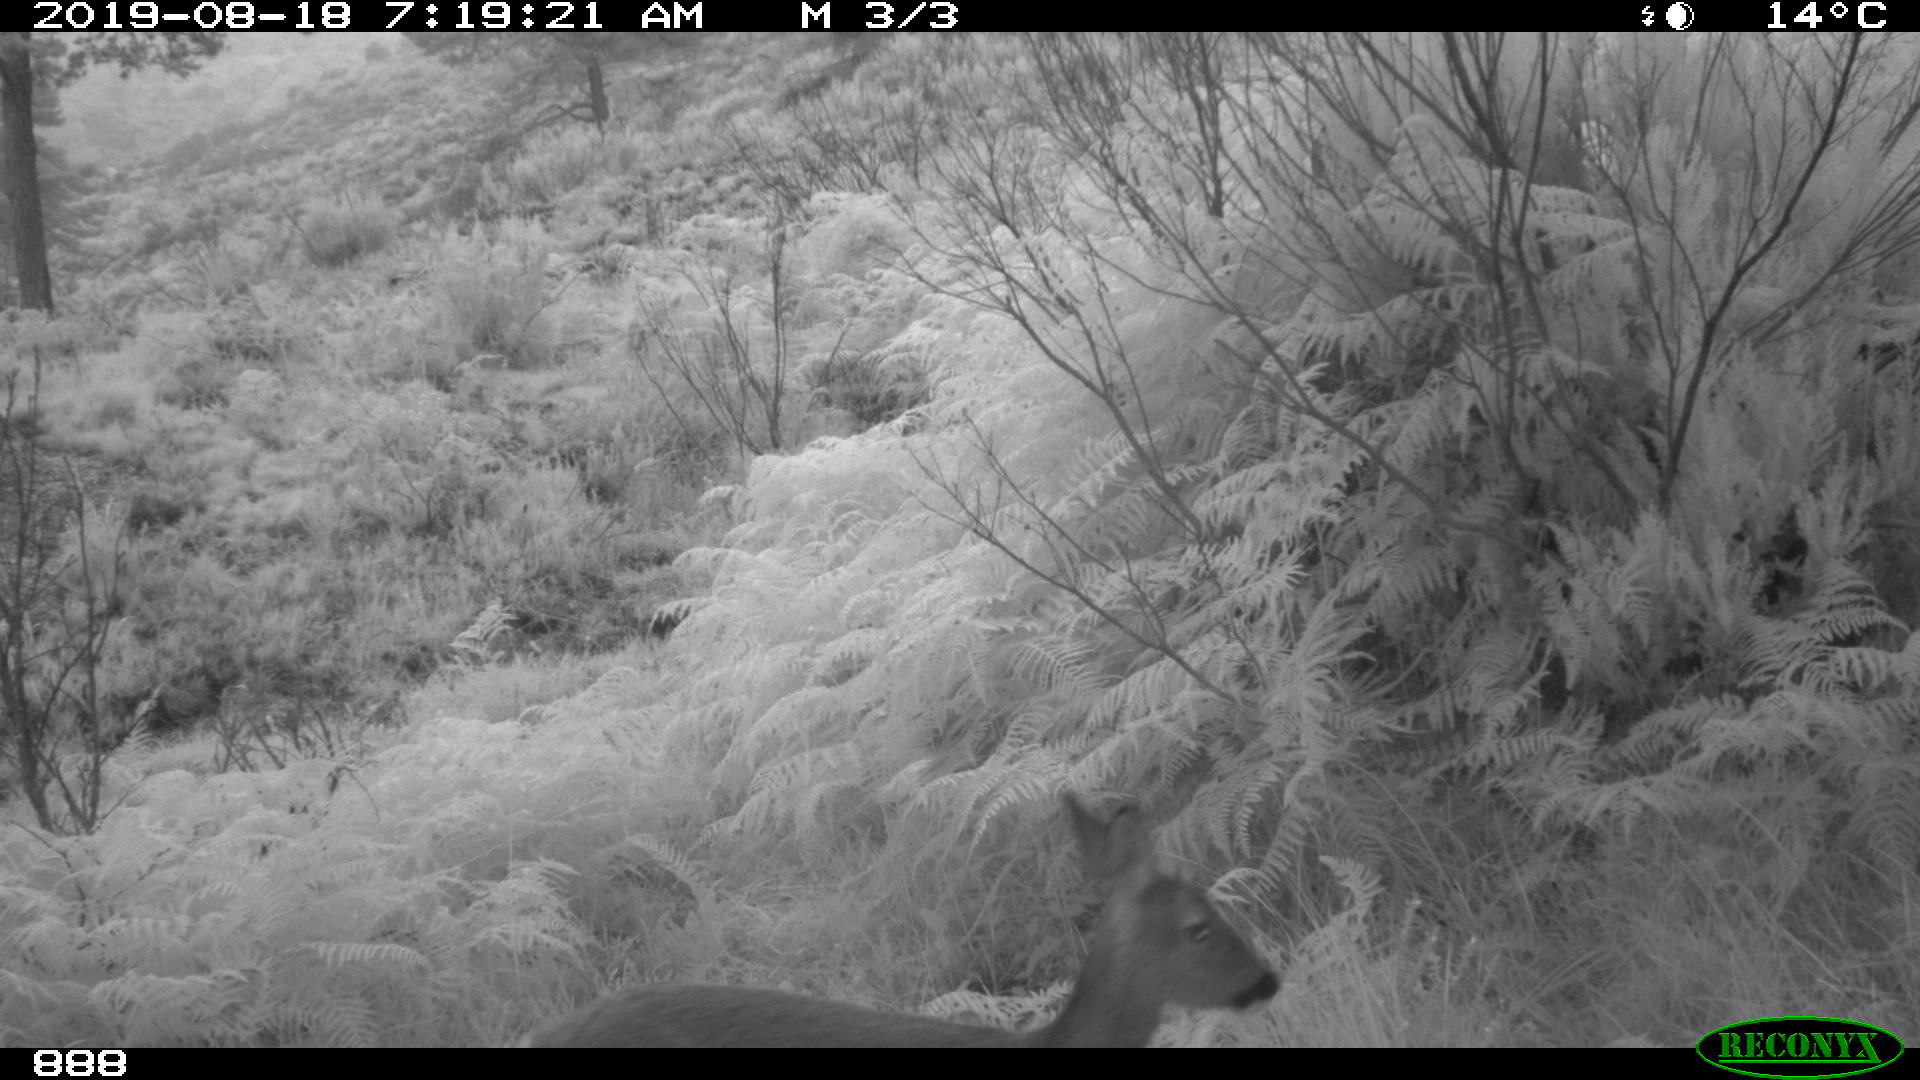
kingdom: Animalia
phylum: Chordata
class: Mammalia
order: Artiodactyla
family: Cervidae
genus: Capreolus
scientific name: Capreolus capreolus
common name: Western roe deer
